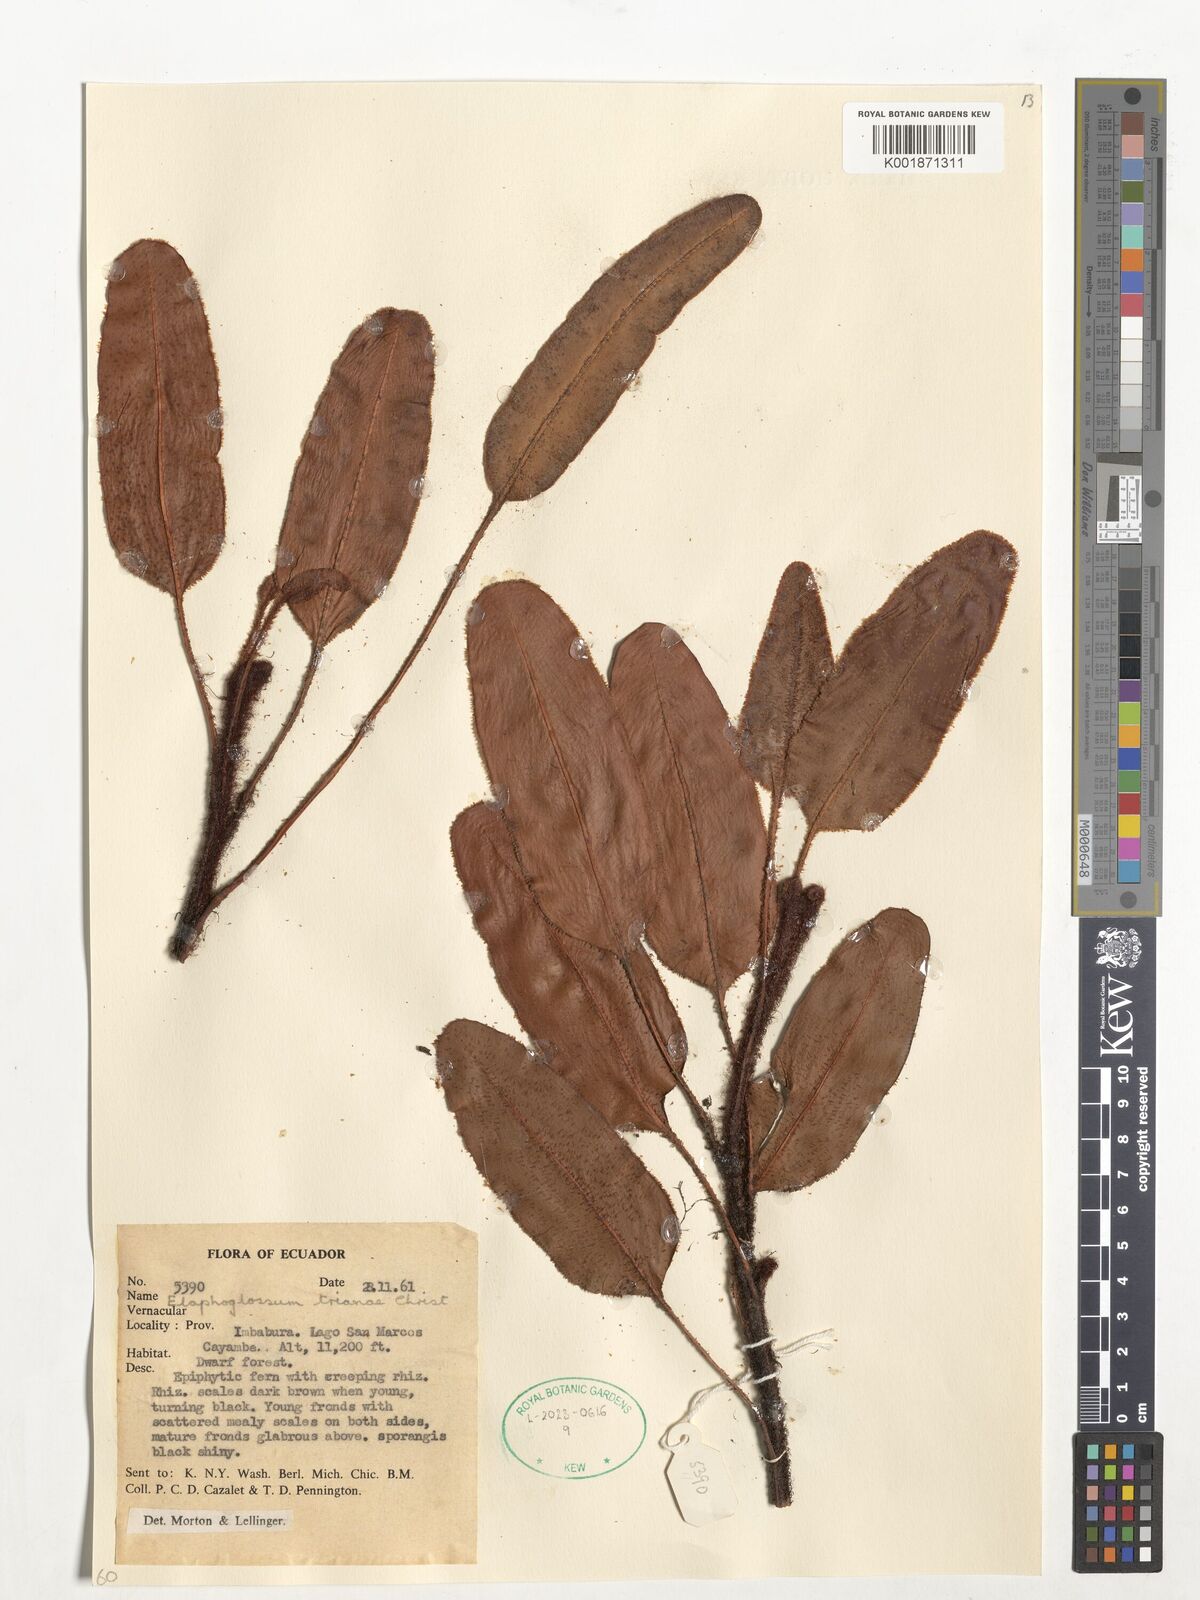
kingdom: Plantae
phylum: Tracheophyta
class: Polypodiopsida
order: Polypodiales
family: Dryopteridaceae
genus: Elaphoglossum
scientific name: Elaphoglossum trianae
